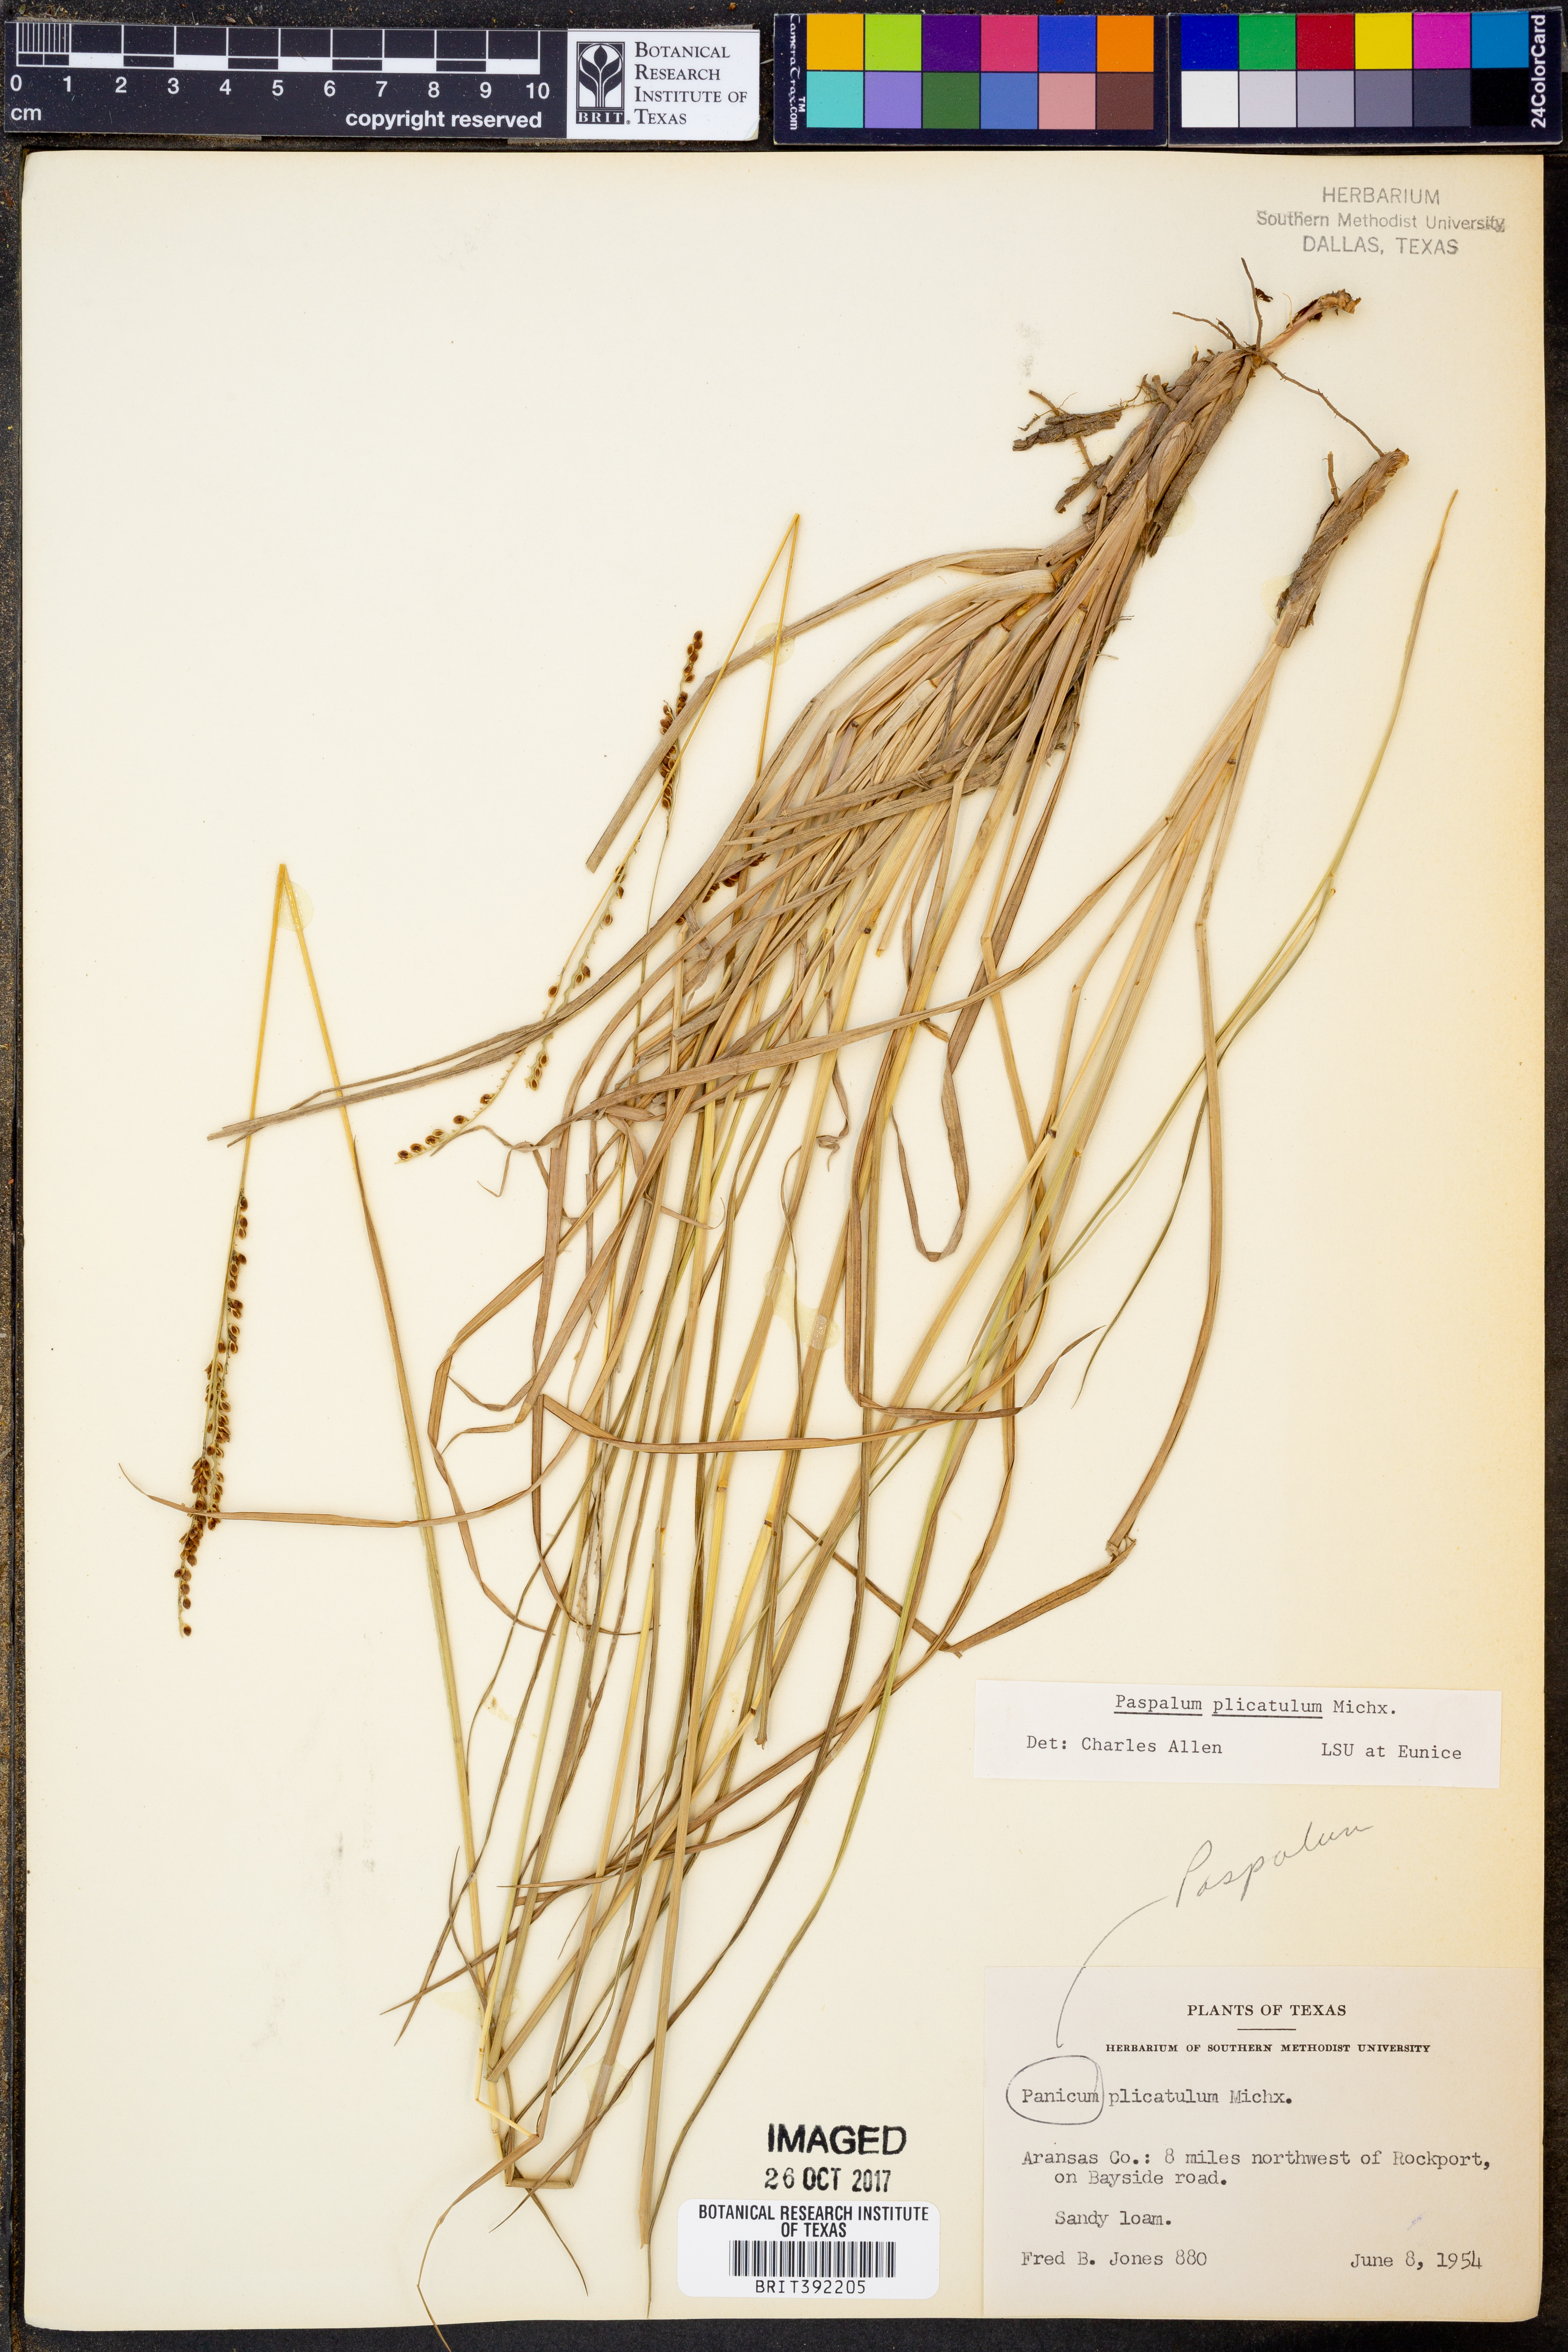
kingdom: Plantae
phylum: Tracheophyta
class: Liliopsida
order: Poales
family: Poaceae
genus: Paspalum
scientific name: Paspalum plicatulum
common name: Top paspalum
